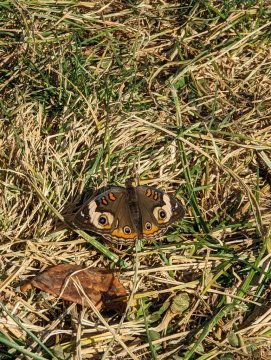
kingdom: Animalia
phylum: Arthropoda
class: Insecta
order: Lepidoptera
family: Nymphalidae
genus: Junonia
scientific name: Junonia coenia
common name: Common Buckeye
